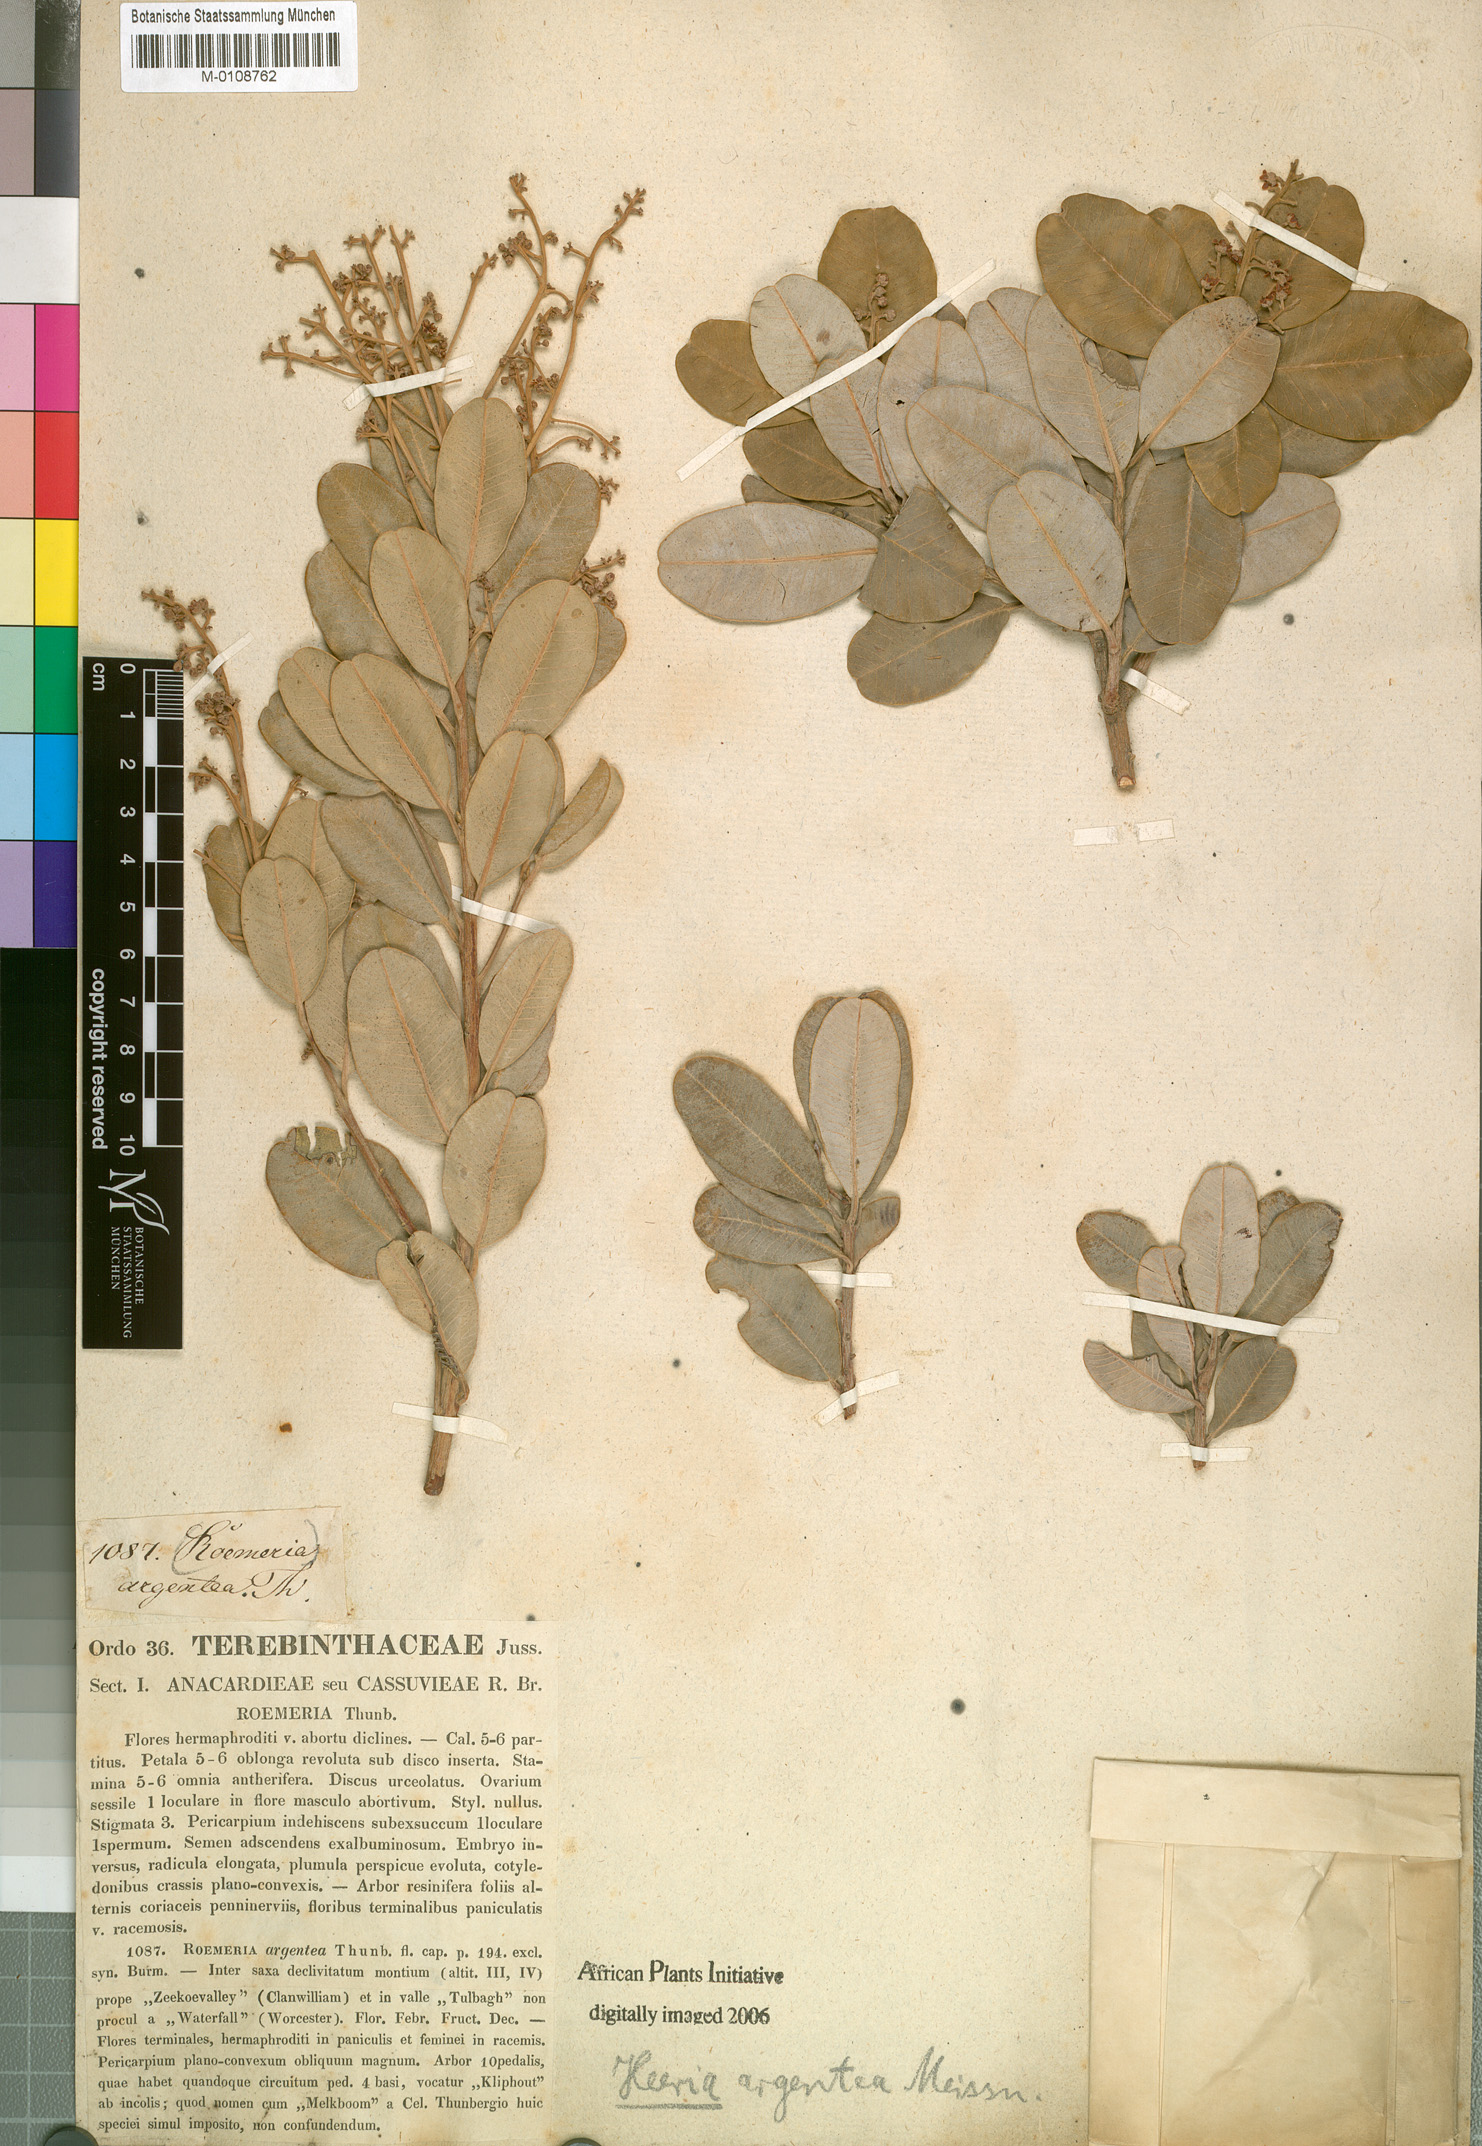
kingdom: Plantae
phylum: Tracheophyta
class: Magnoliopsida
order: Sapindales
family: Anacardiaceae
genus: Heeria
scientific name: Heeria argentea
